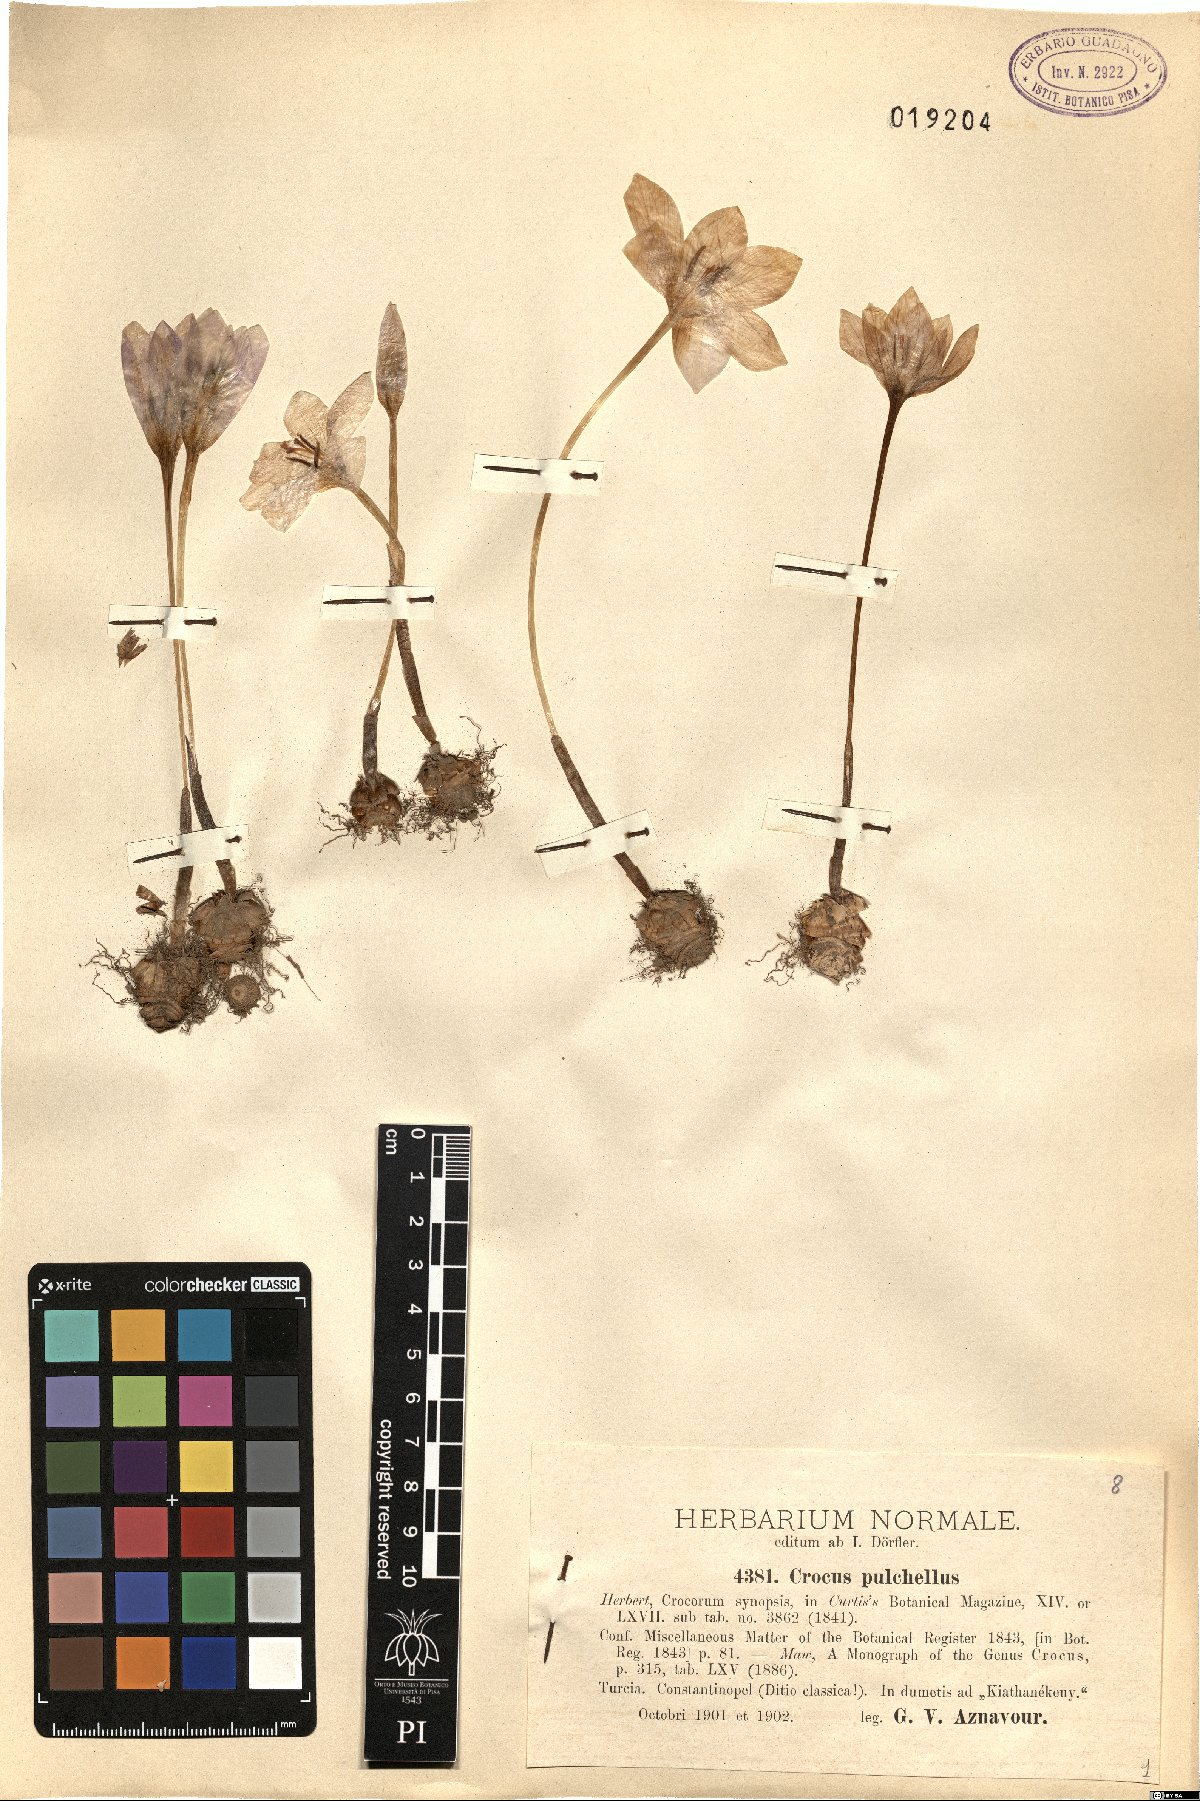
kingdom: Plantae
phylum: Tracheophyta
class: Liliopsida
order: Asparagales
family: Iridaceae
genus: Crocus
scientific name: Crocus pulchellus
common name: Hairy crocus
